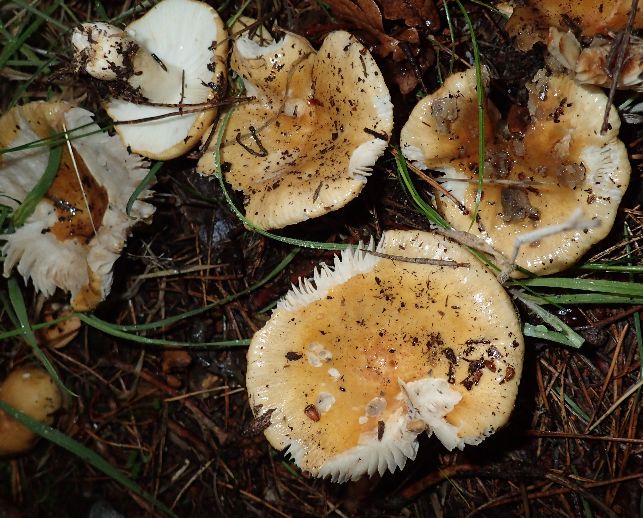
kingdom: Fungi
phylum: Basidiomycota
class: Agaricomycetes
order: Russulales
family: Russulaceae
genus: Russula
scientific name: Russula ochroleuca
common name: okkergul skørhat
